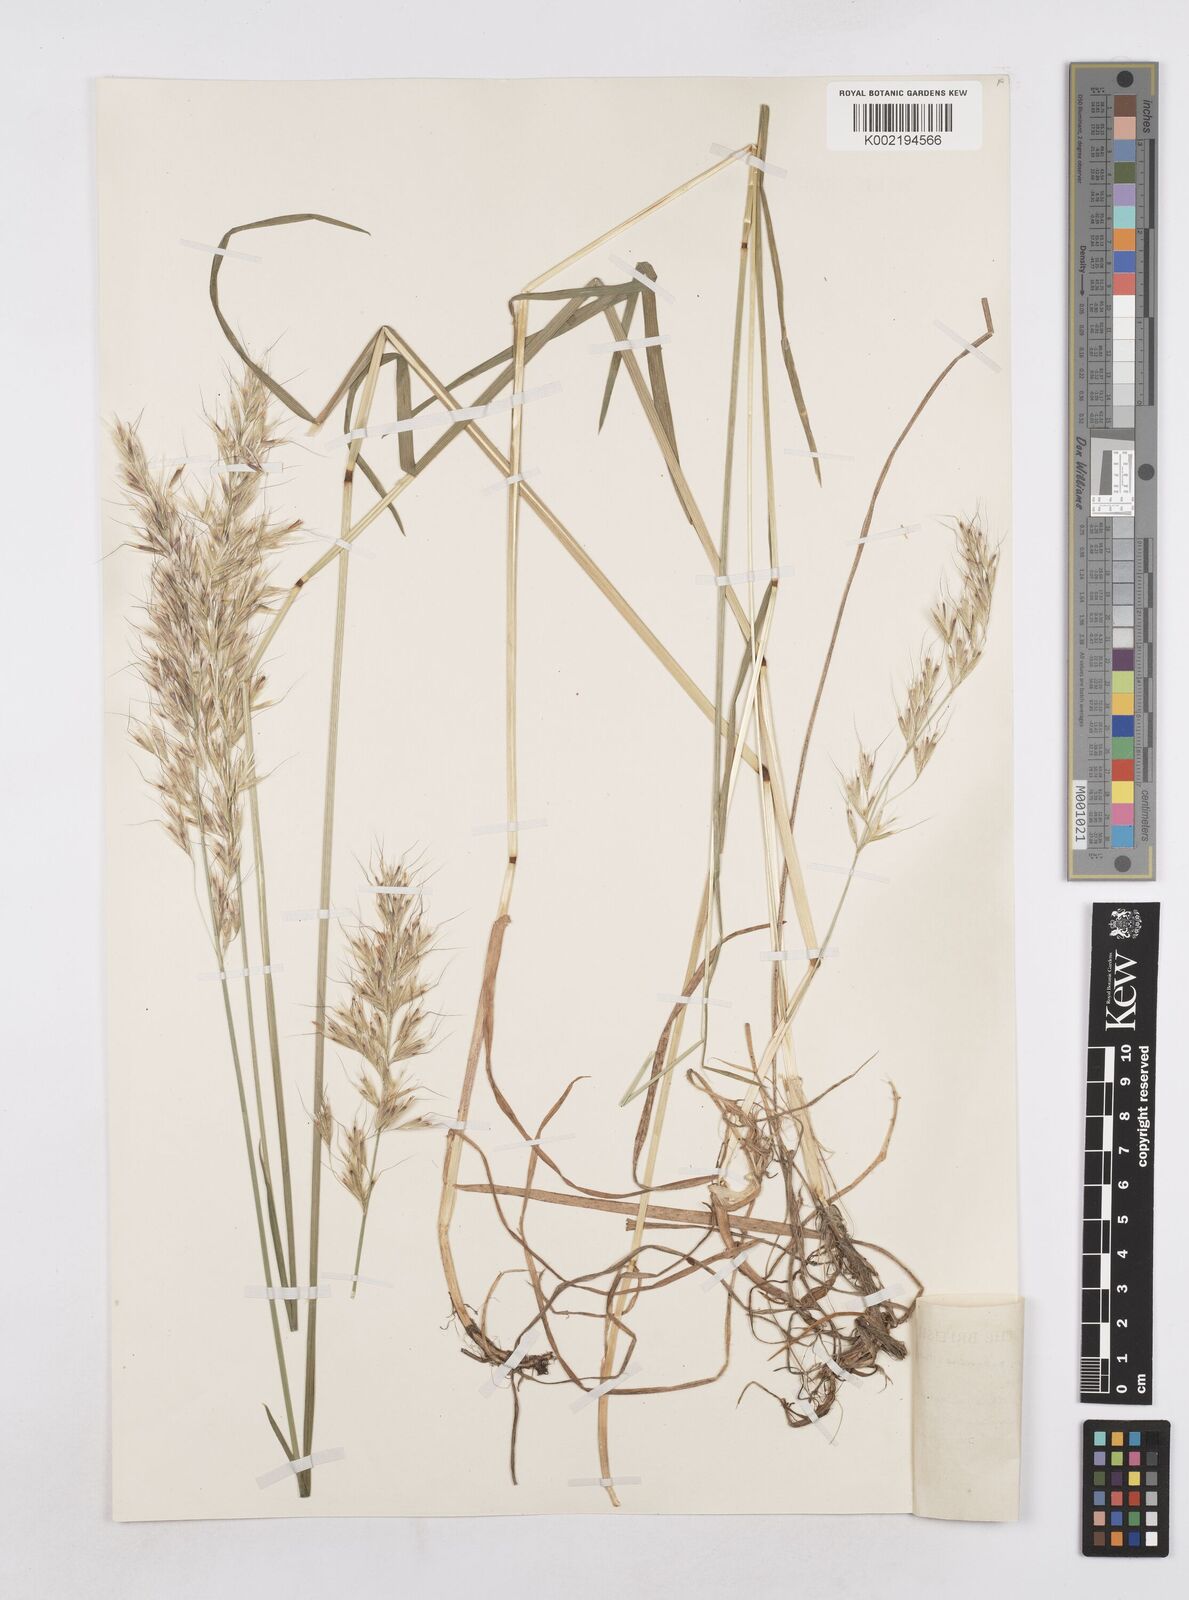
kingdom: Plantae
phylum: Tracheophyta
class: Liliopsida
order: Poales
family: Poaceae
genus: Avenula
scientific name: Avenula pubescens
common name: Downy alpine oatgrass
